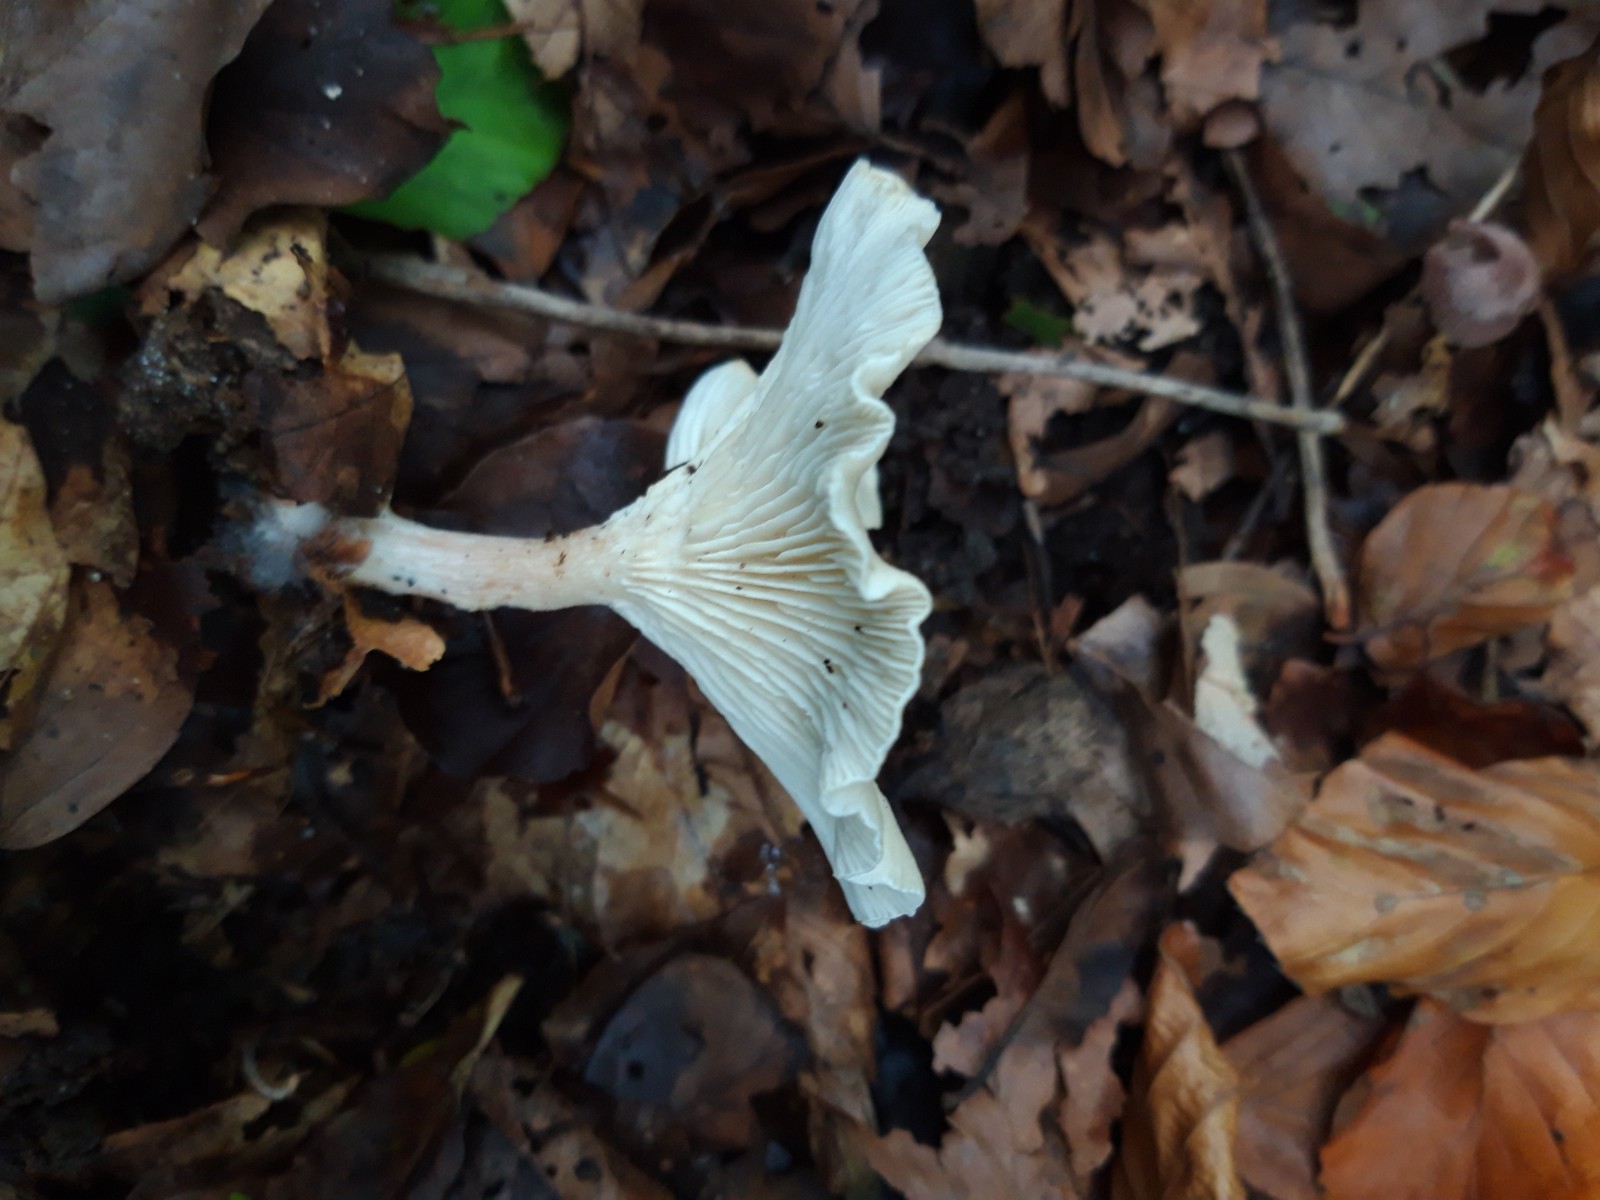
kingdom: Fungi
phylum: Basidiomycota
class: Agaricomycetes
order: Agaricales
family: Tricholomataceae
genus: Infundibulicybe
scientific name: Infundibulicybe gibba
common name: almindelig tragthat
